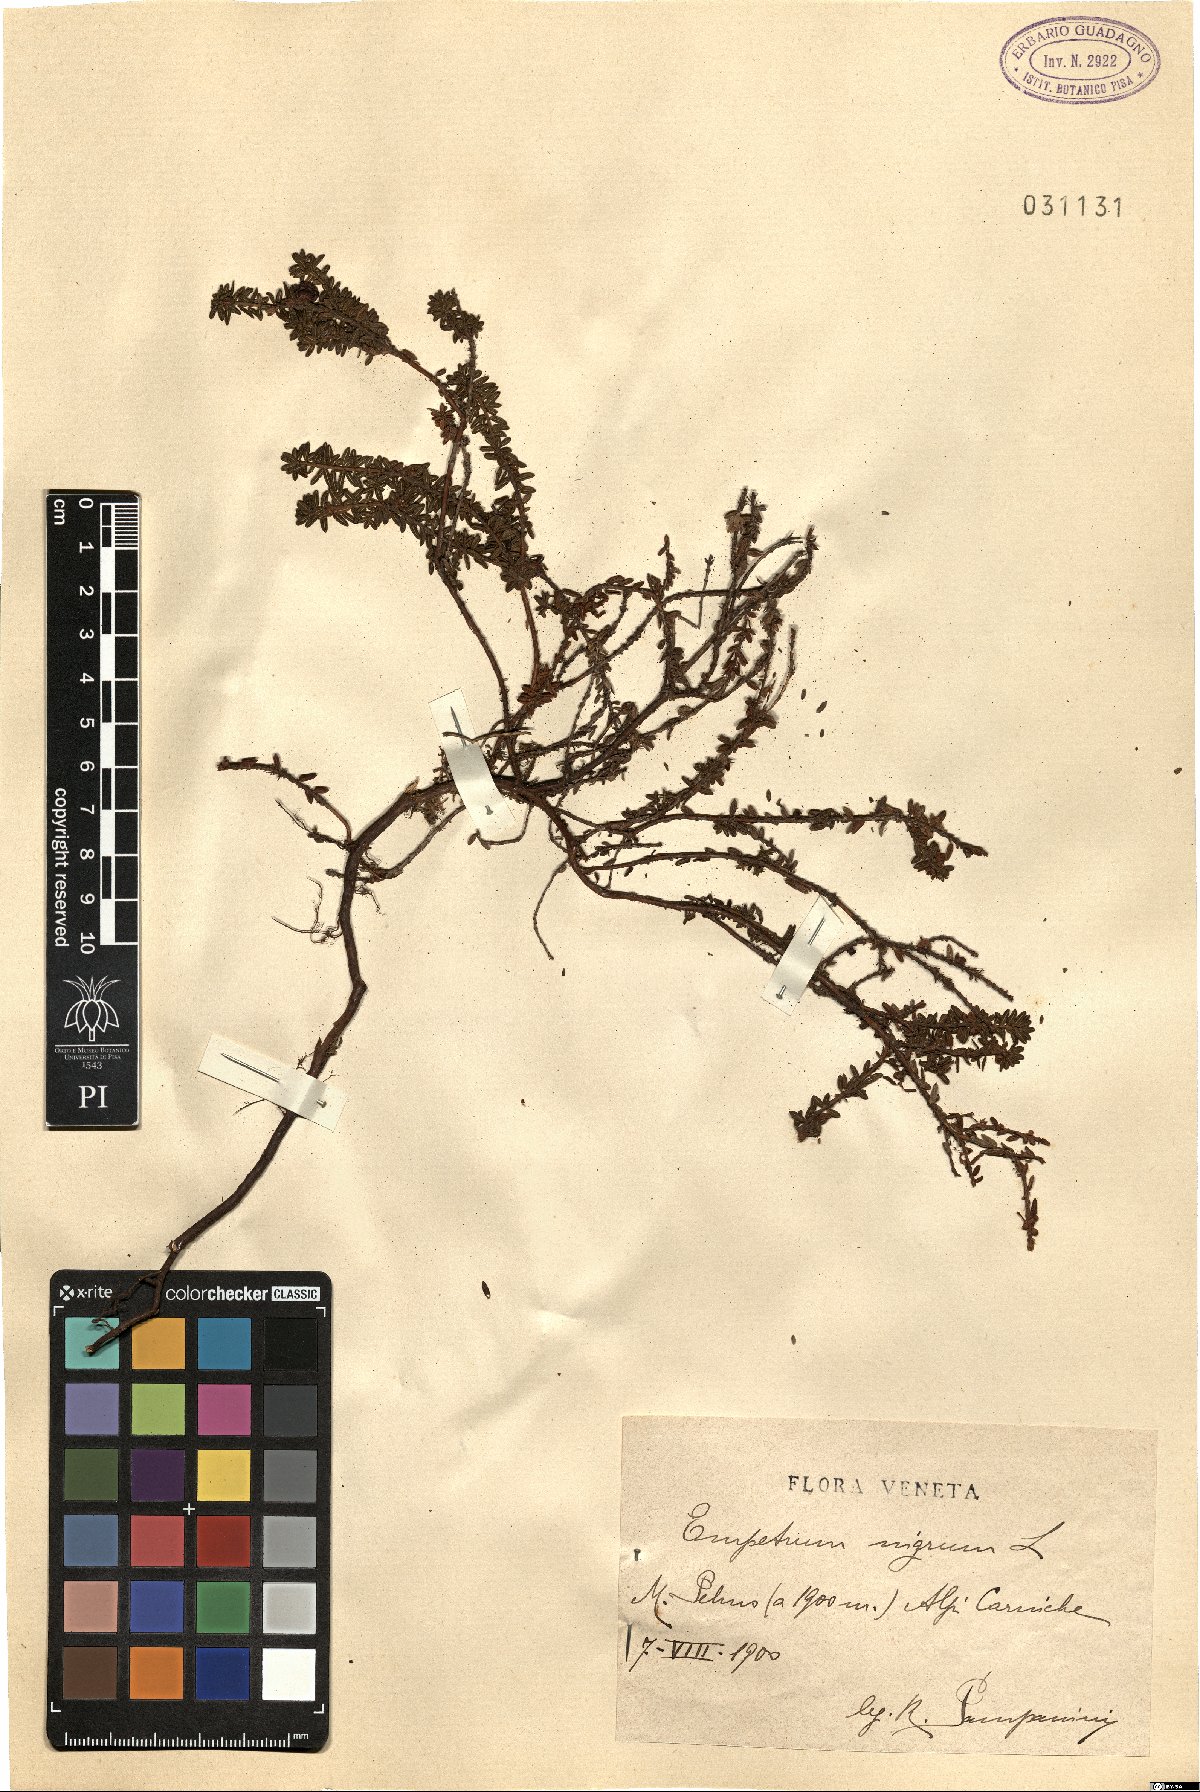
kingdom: Plantae
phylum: Tracheophyta
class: Magnoliopsida
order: Ericales
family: Ericaceae
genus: Empetrum
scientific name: Empetrum nigrum
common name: Black crowberry
